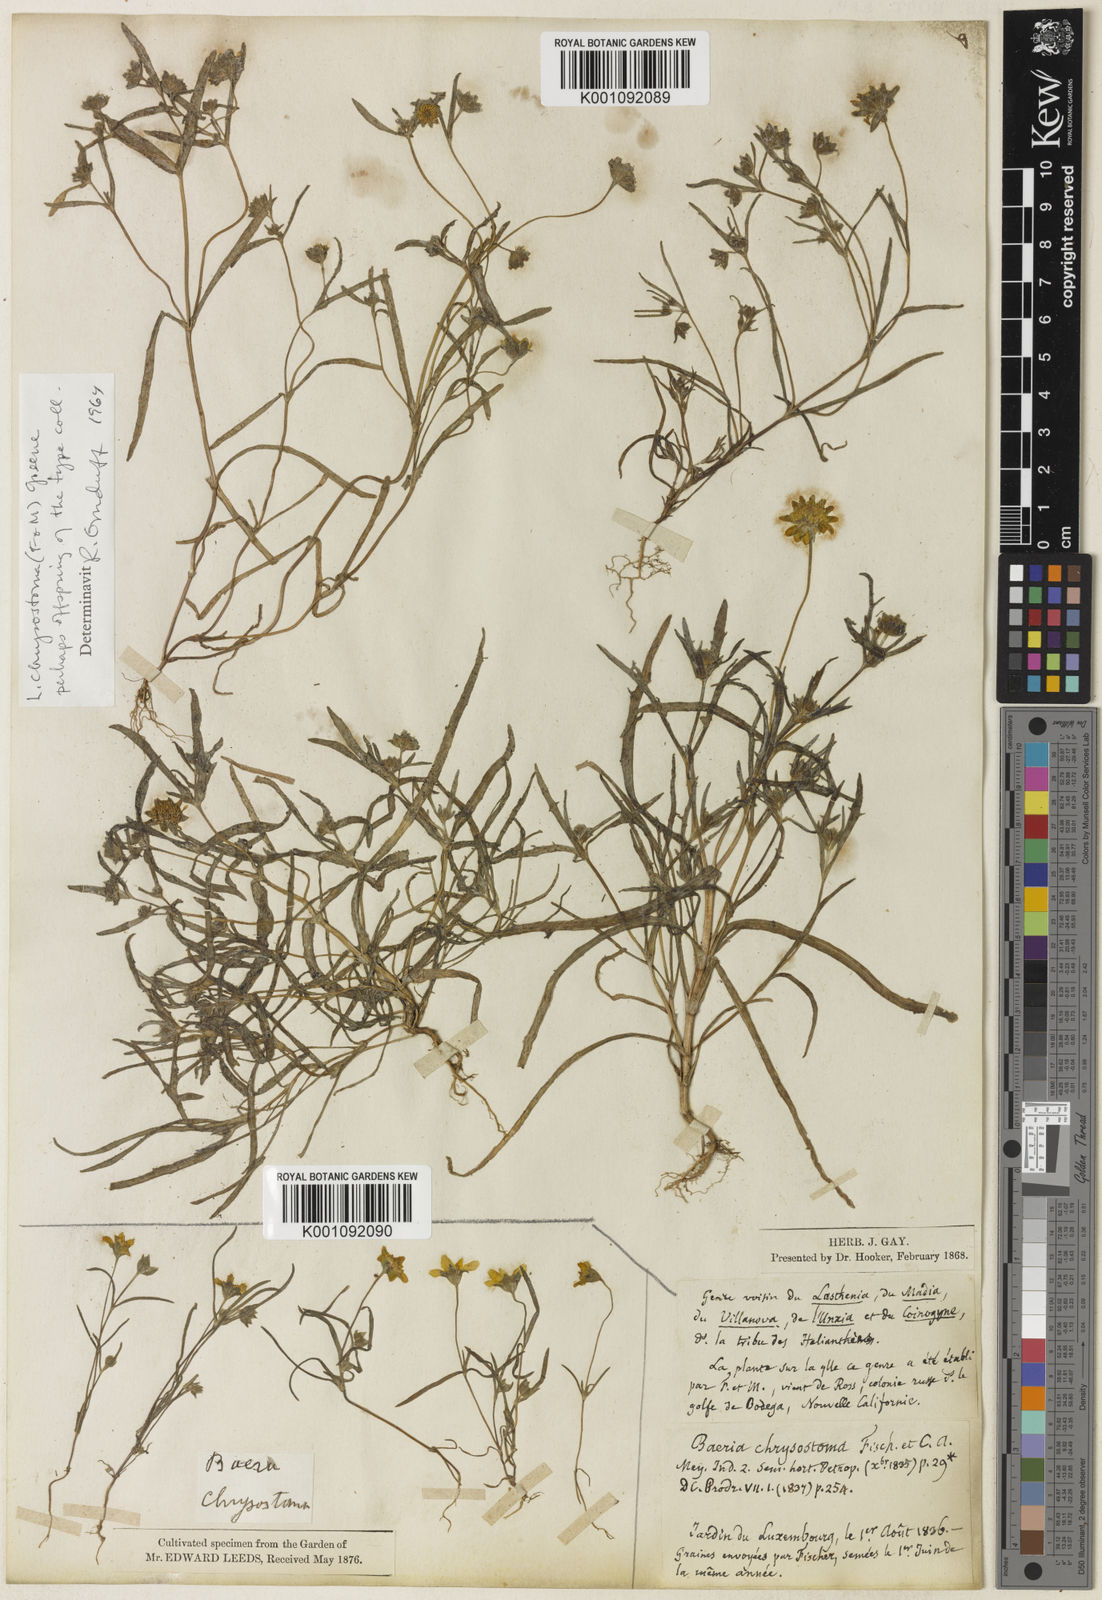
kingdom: Plantae
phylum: Tracheophyta
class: Magnoliopsida
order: Asterales
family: Asteraceae
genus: Lasthenia
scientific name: Lasthenia californica
